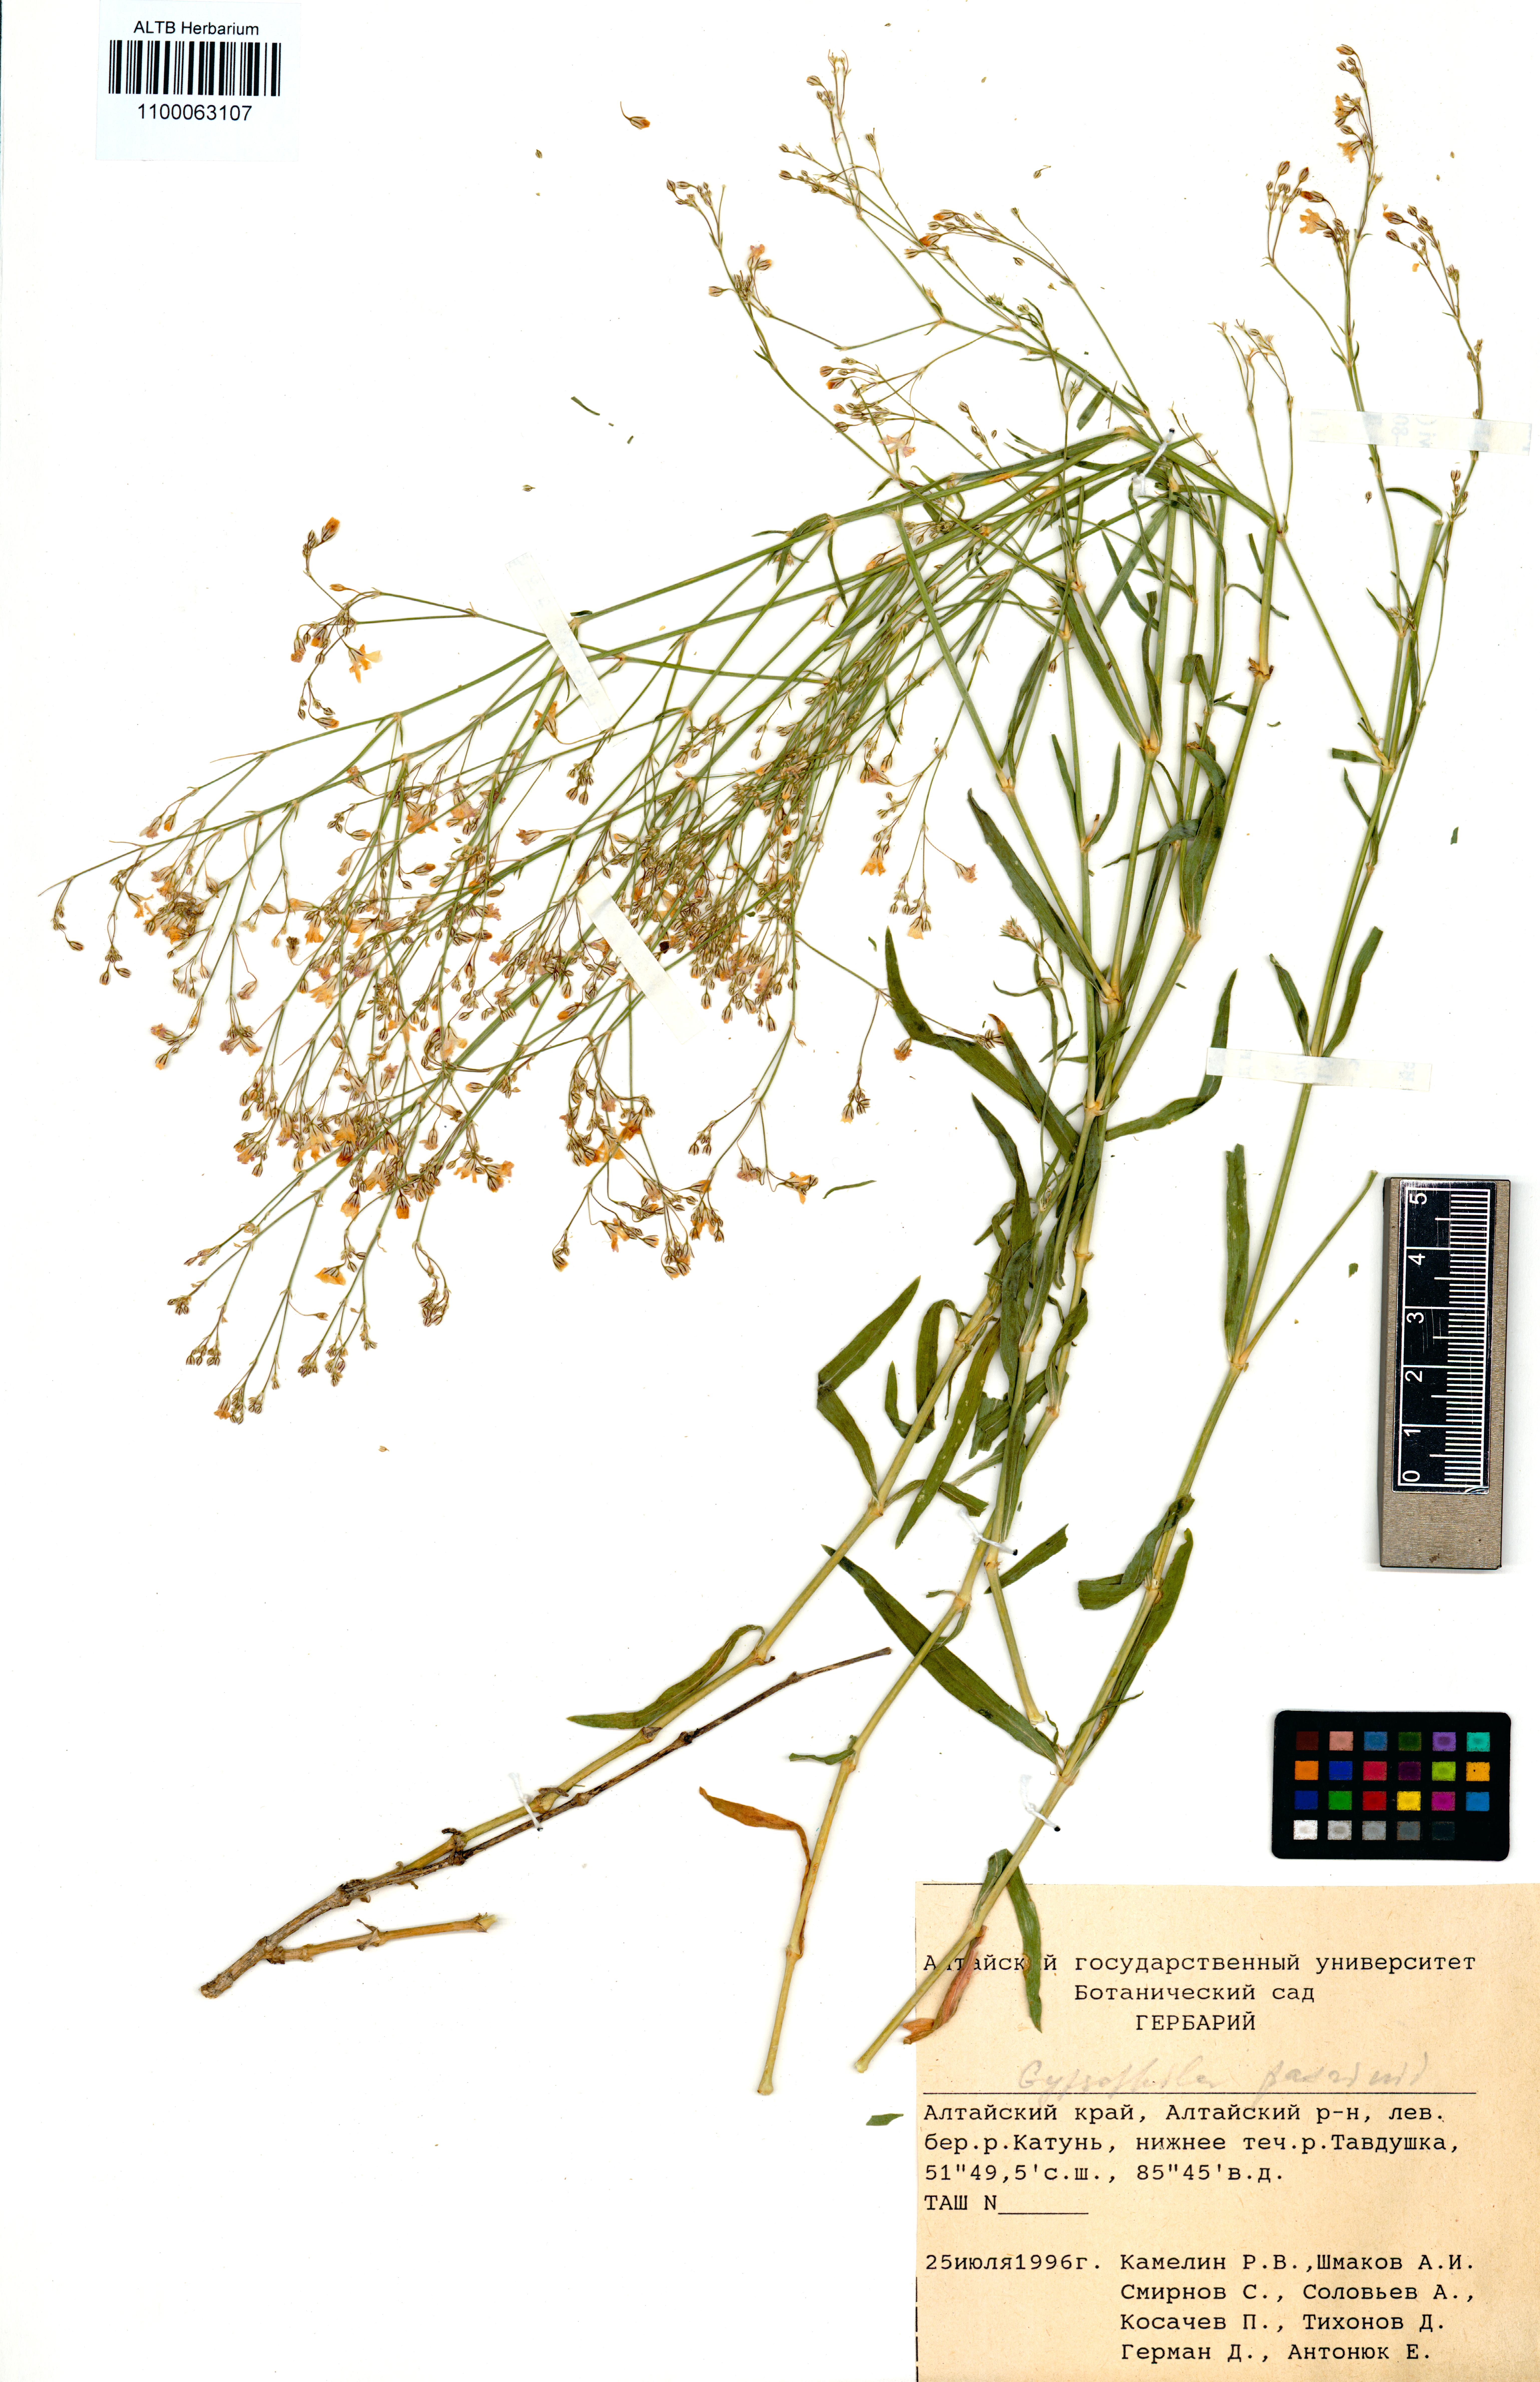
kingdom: Plantae
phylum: Tracheophyta
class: Magnoliopsida
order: Caryophyllales
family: Caryophyllaceae
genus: Gypsophila
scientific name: Gypsophila patrinii
